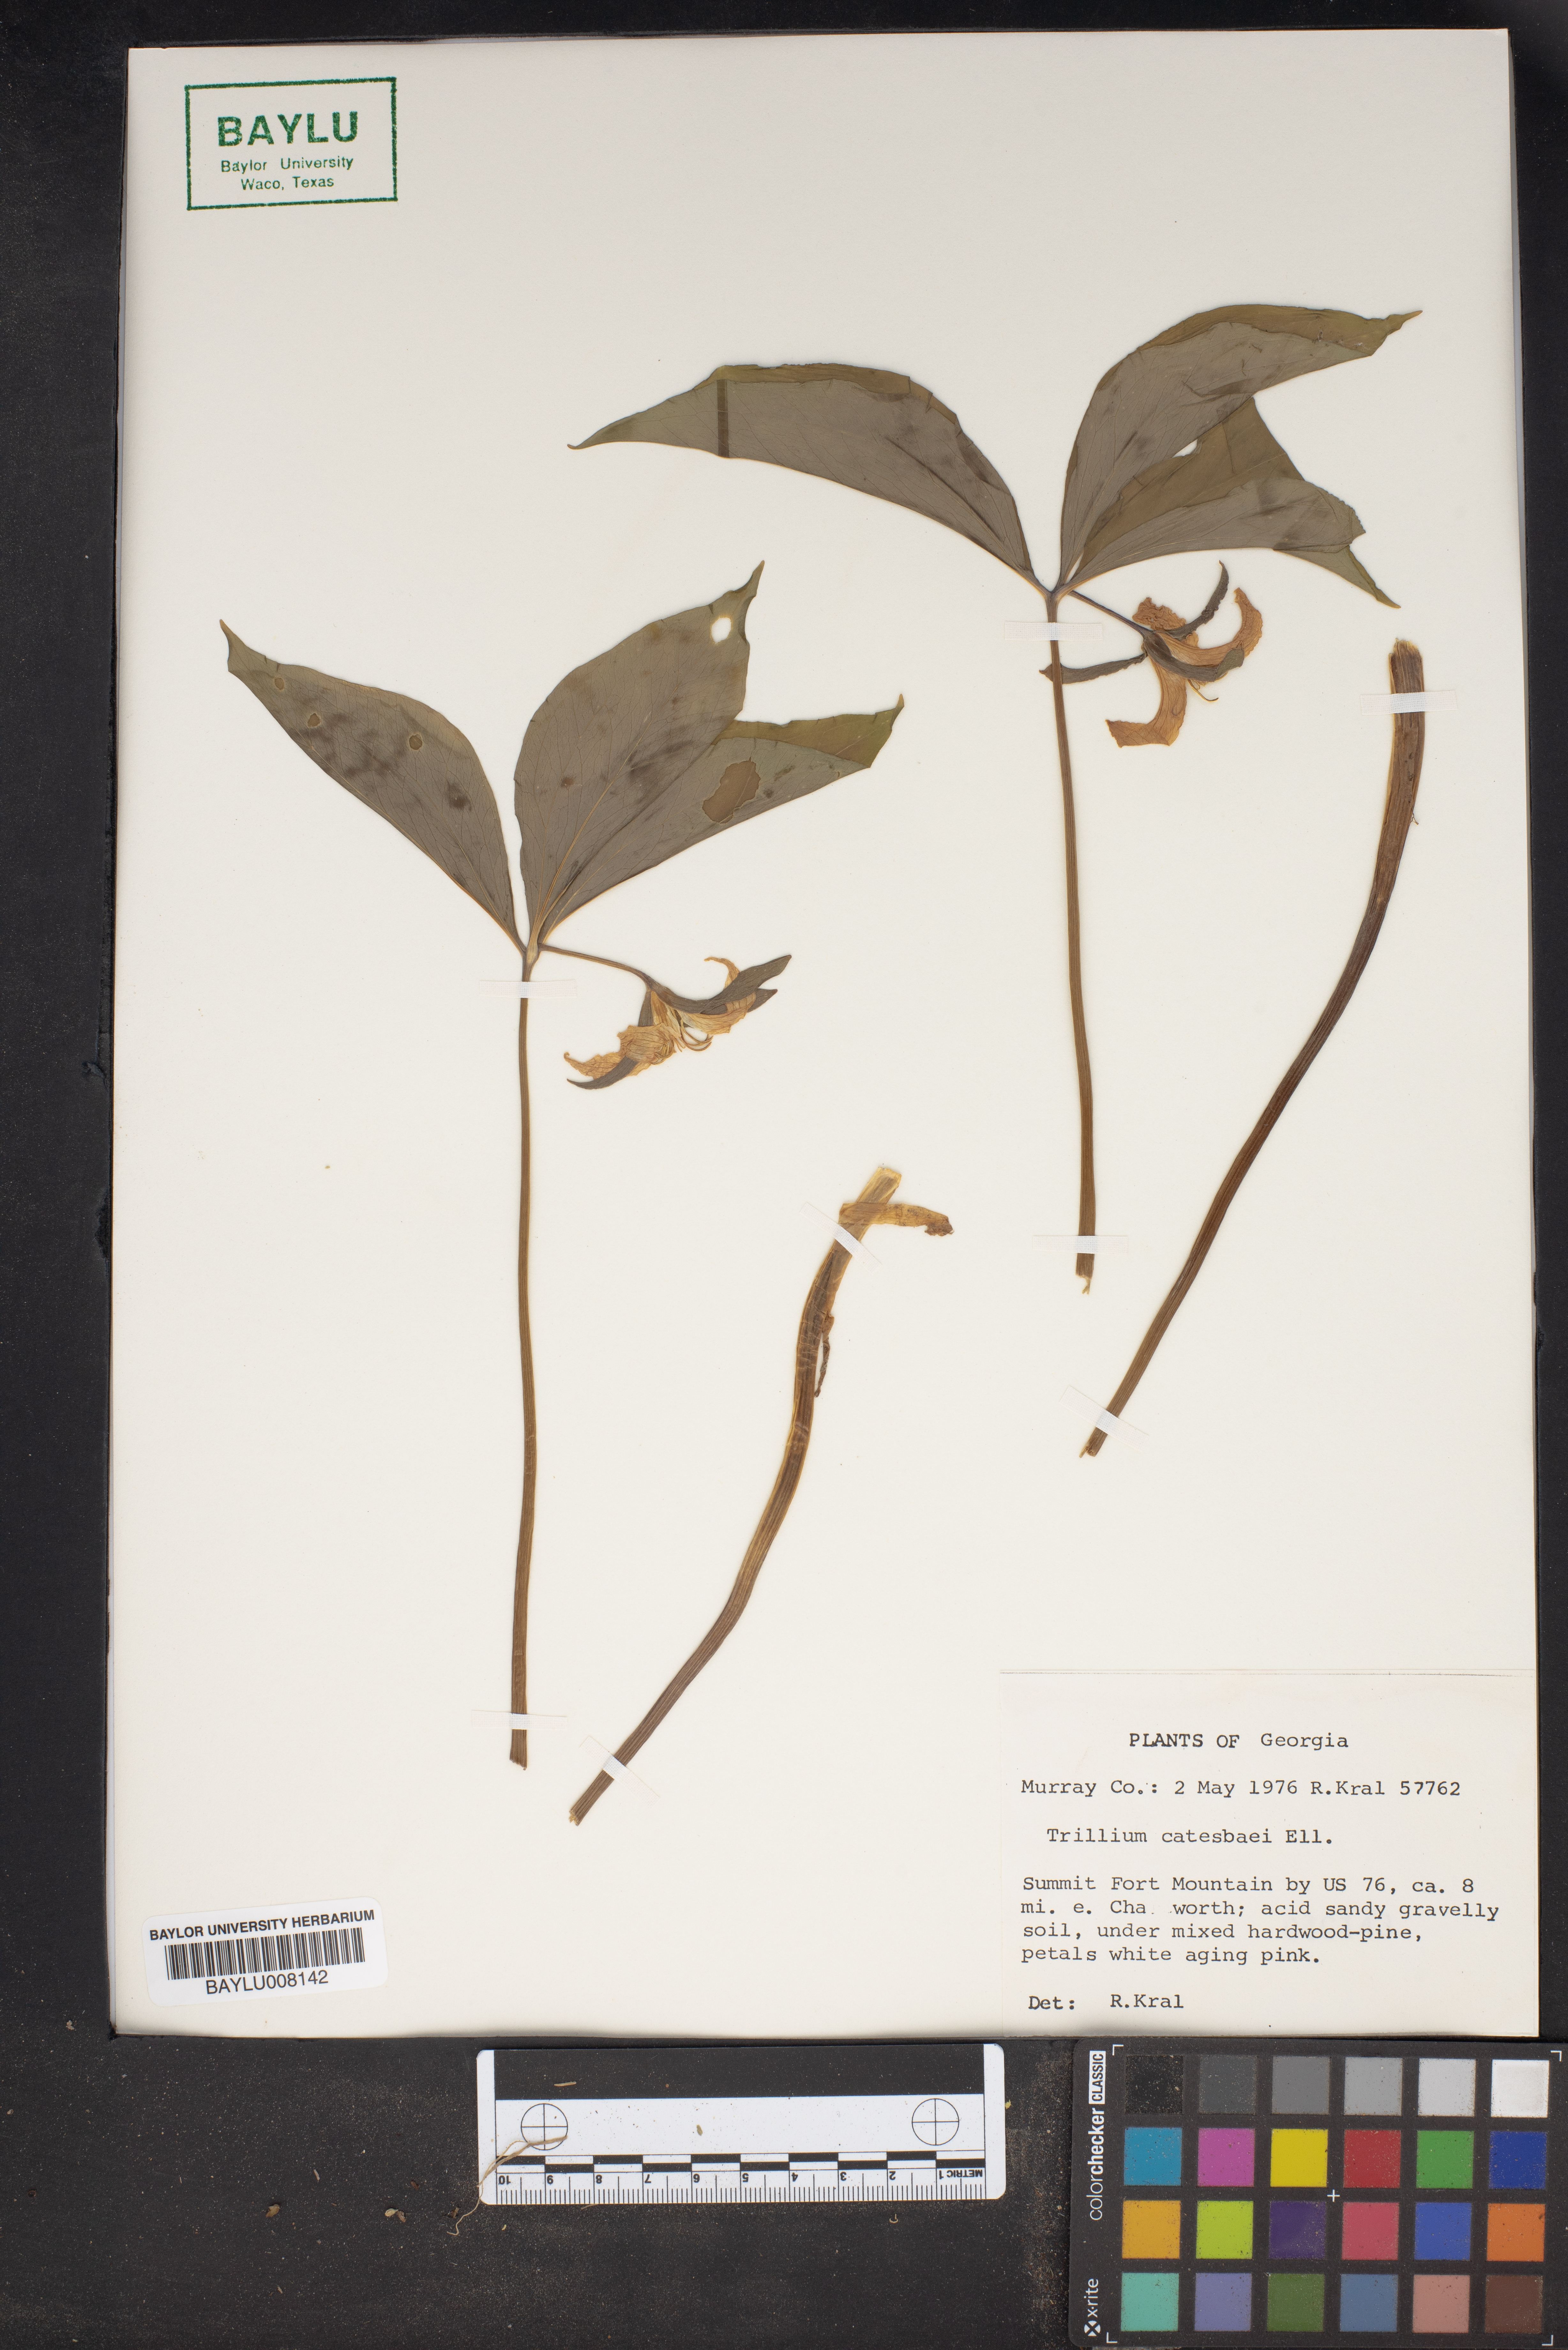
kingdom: Plantae
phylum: Tracheophyta
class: Liliopsida
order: Liliales
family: Melanthiaceae
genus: Trillium
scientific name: Trillium catesbaei
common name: Bashful trillium
